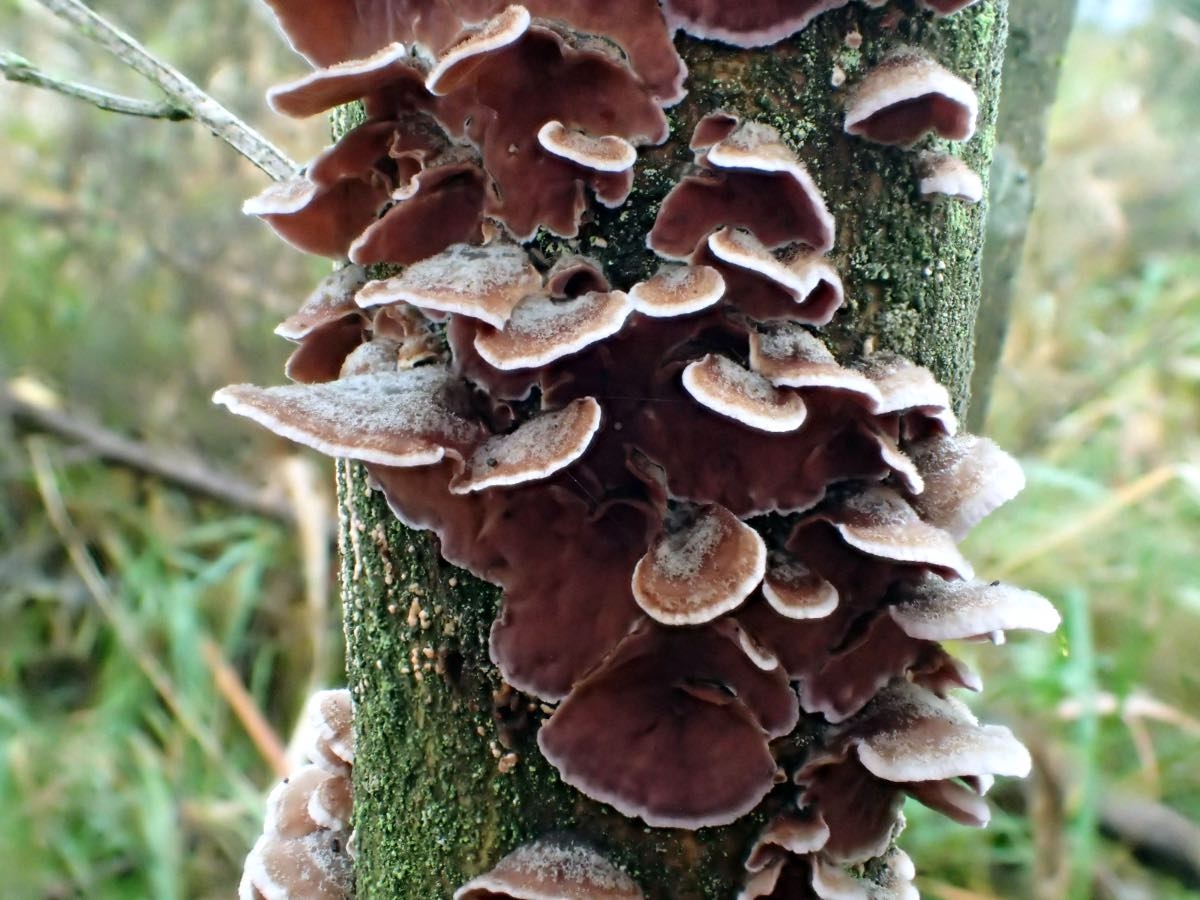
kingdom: Fungi
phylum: Basidiomycota
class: Agaricomycetes
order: Agaricales
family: Cyphellaceae
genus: Chondrostereum
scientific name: Chondrostereum purpureum
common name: purpurlædersvamp
